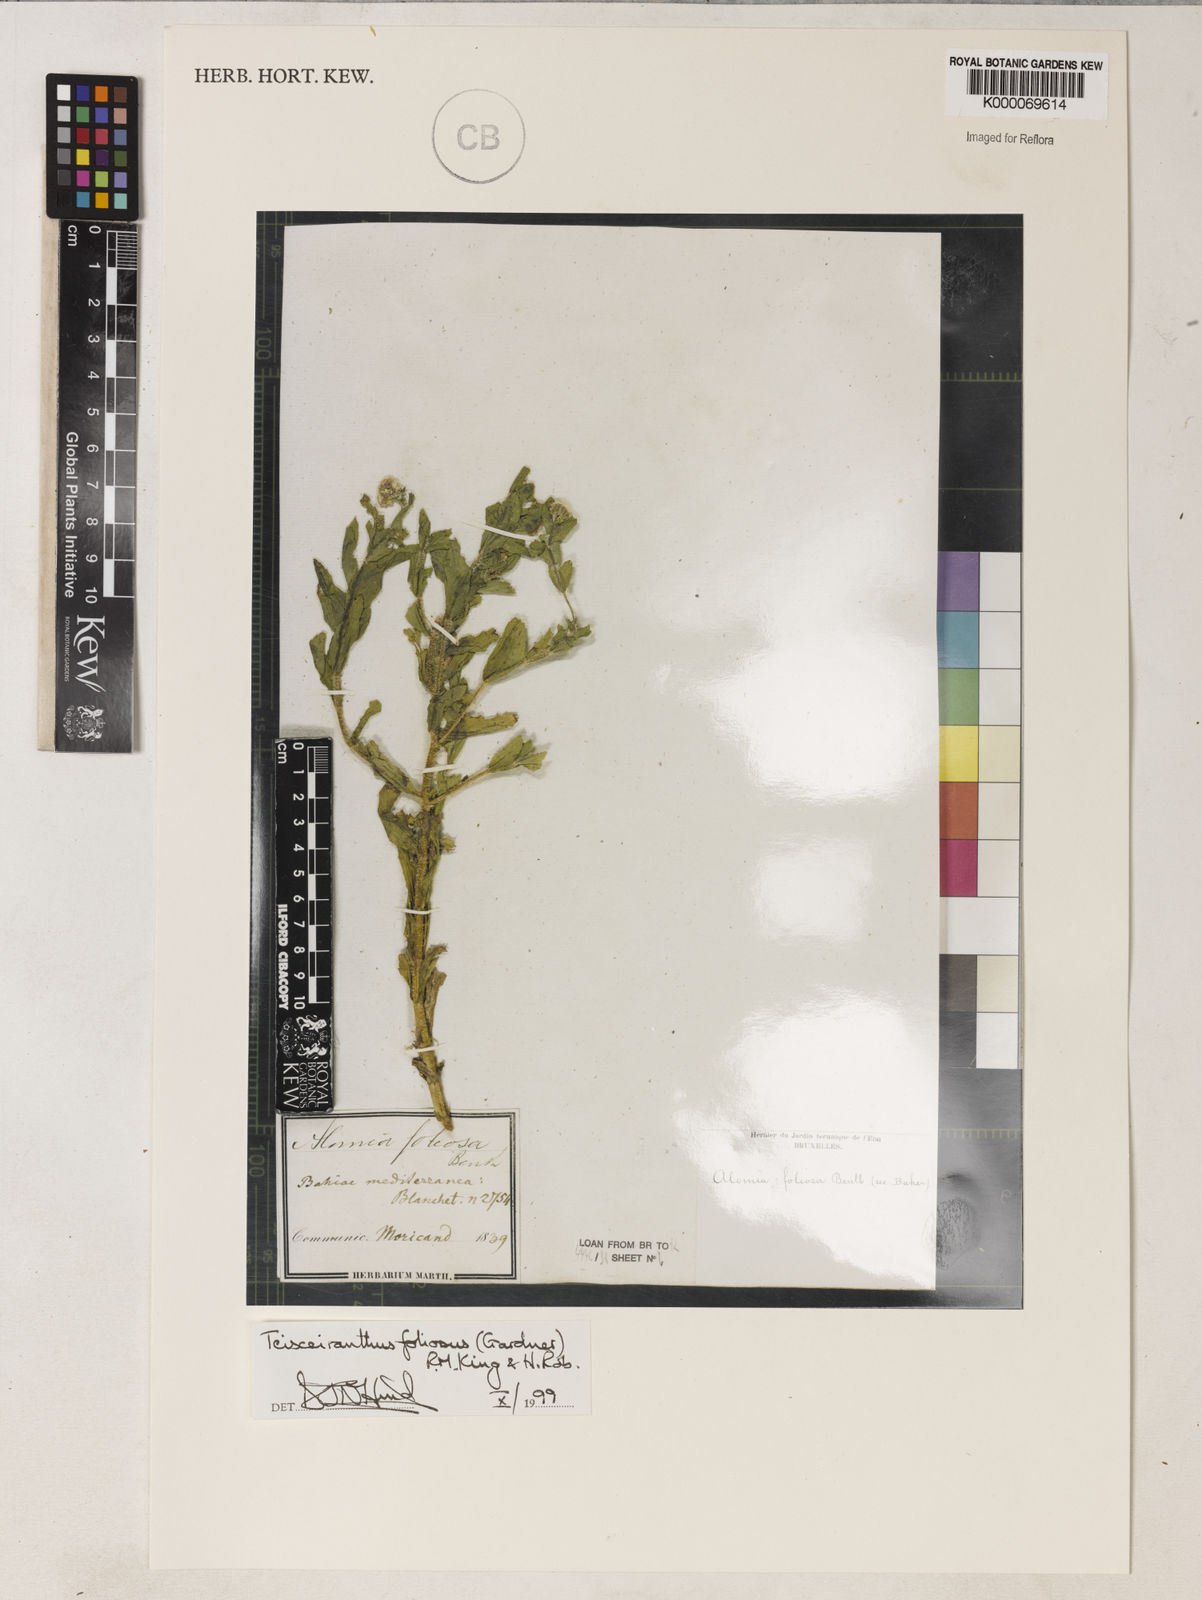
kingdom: Plantae
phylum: Tracheophyta
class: Magnoliopsida
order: Asterales
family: Asteraceae
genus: Teixeiranthus
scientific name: Teixeiranthus foliosus
